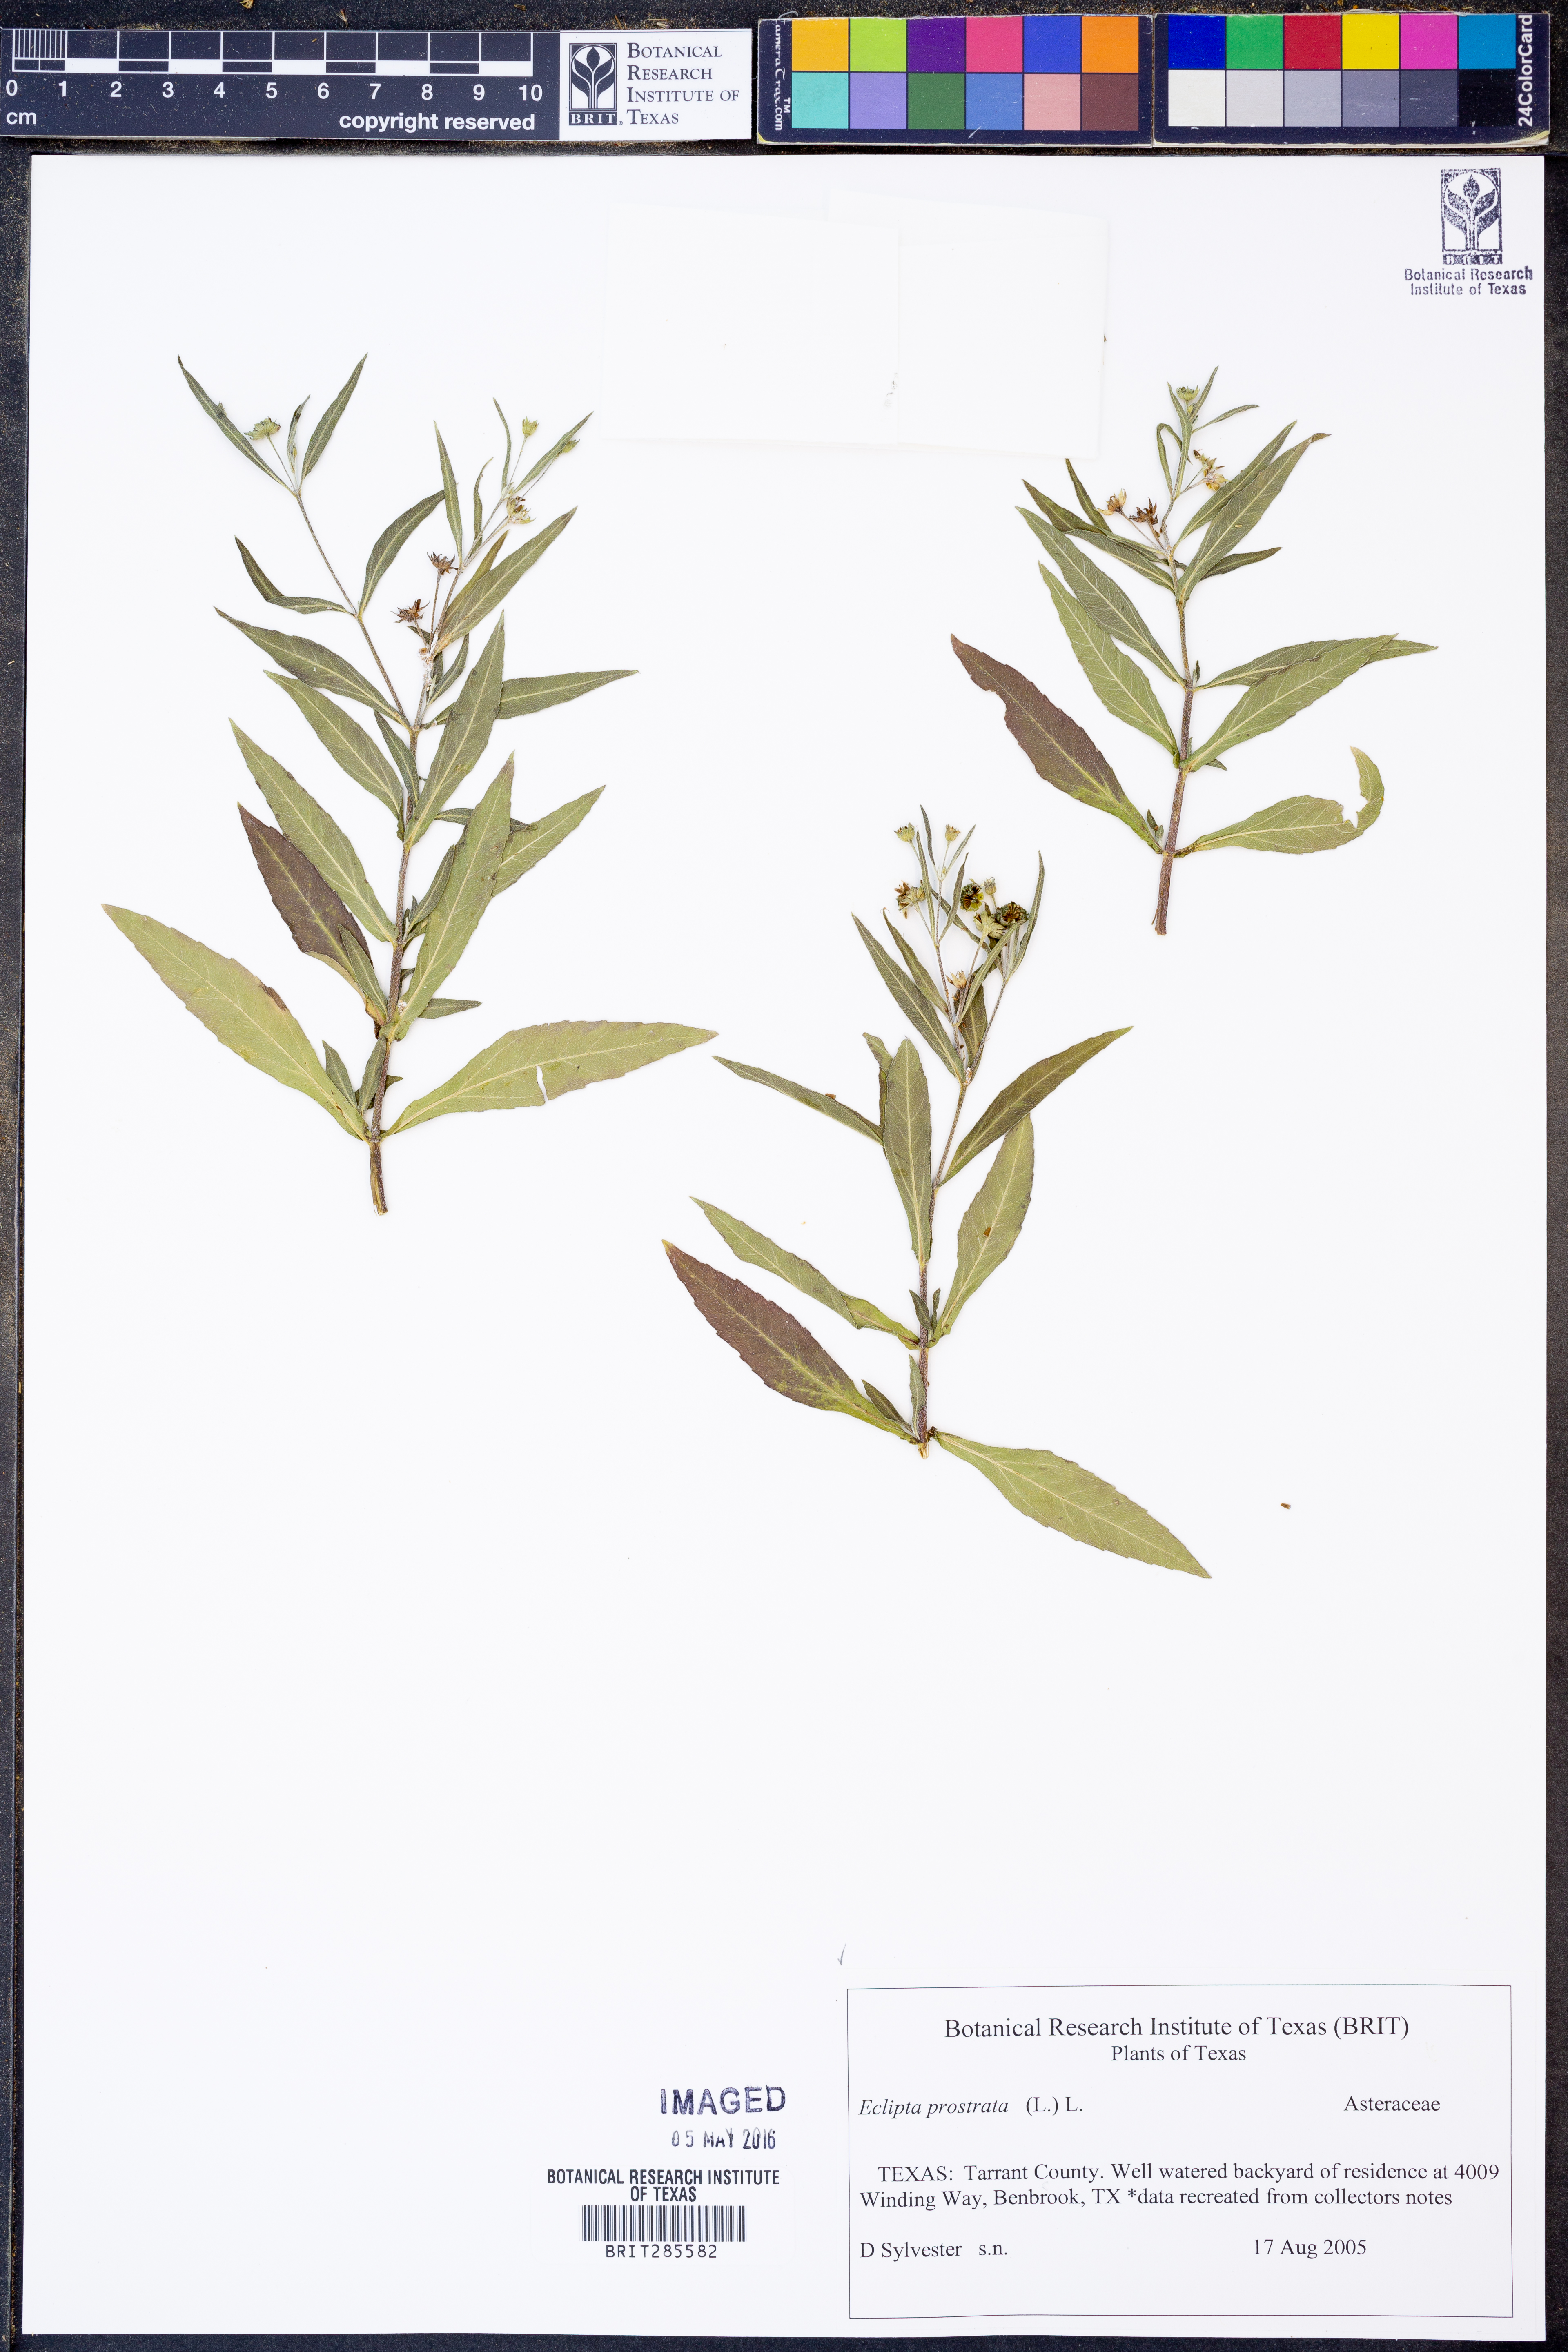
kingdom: Plantae
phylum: Tracheophyta
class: Magnoliopsida
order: Asterales
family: Asteraceae
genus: Eclipta
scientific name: Eclipta prostrata
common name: False daisy
